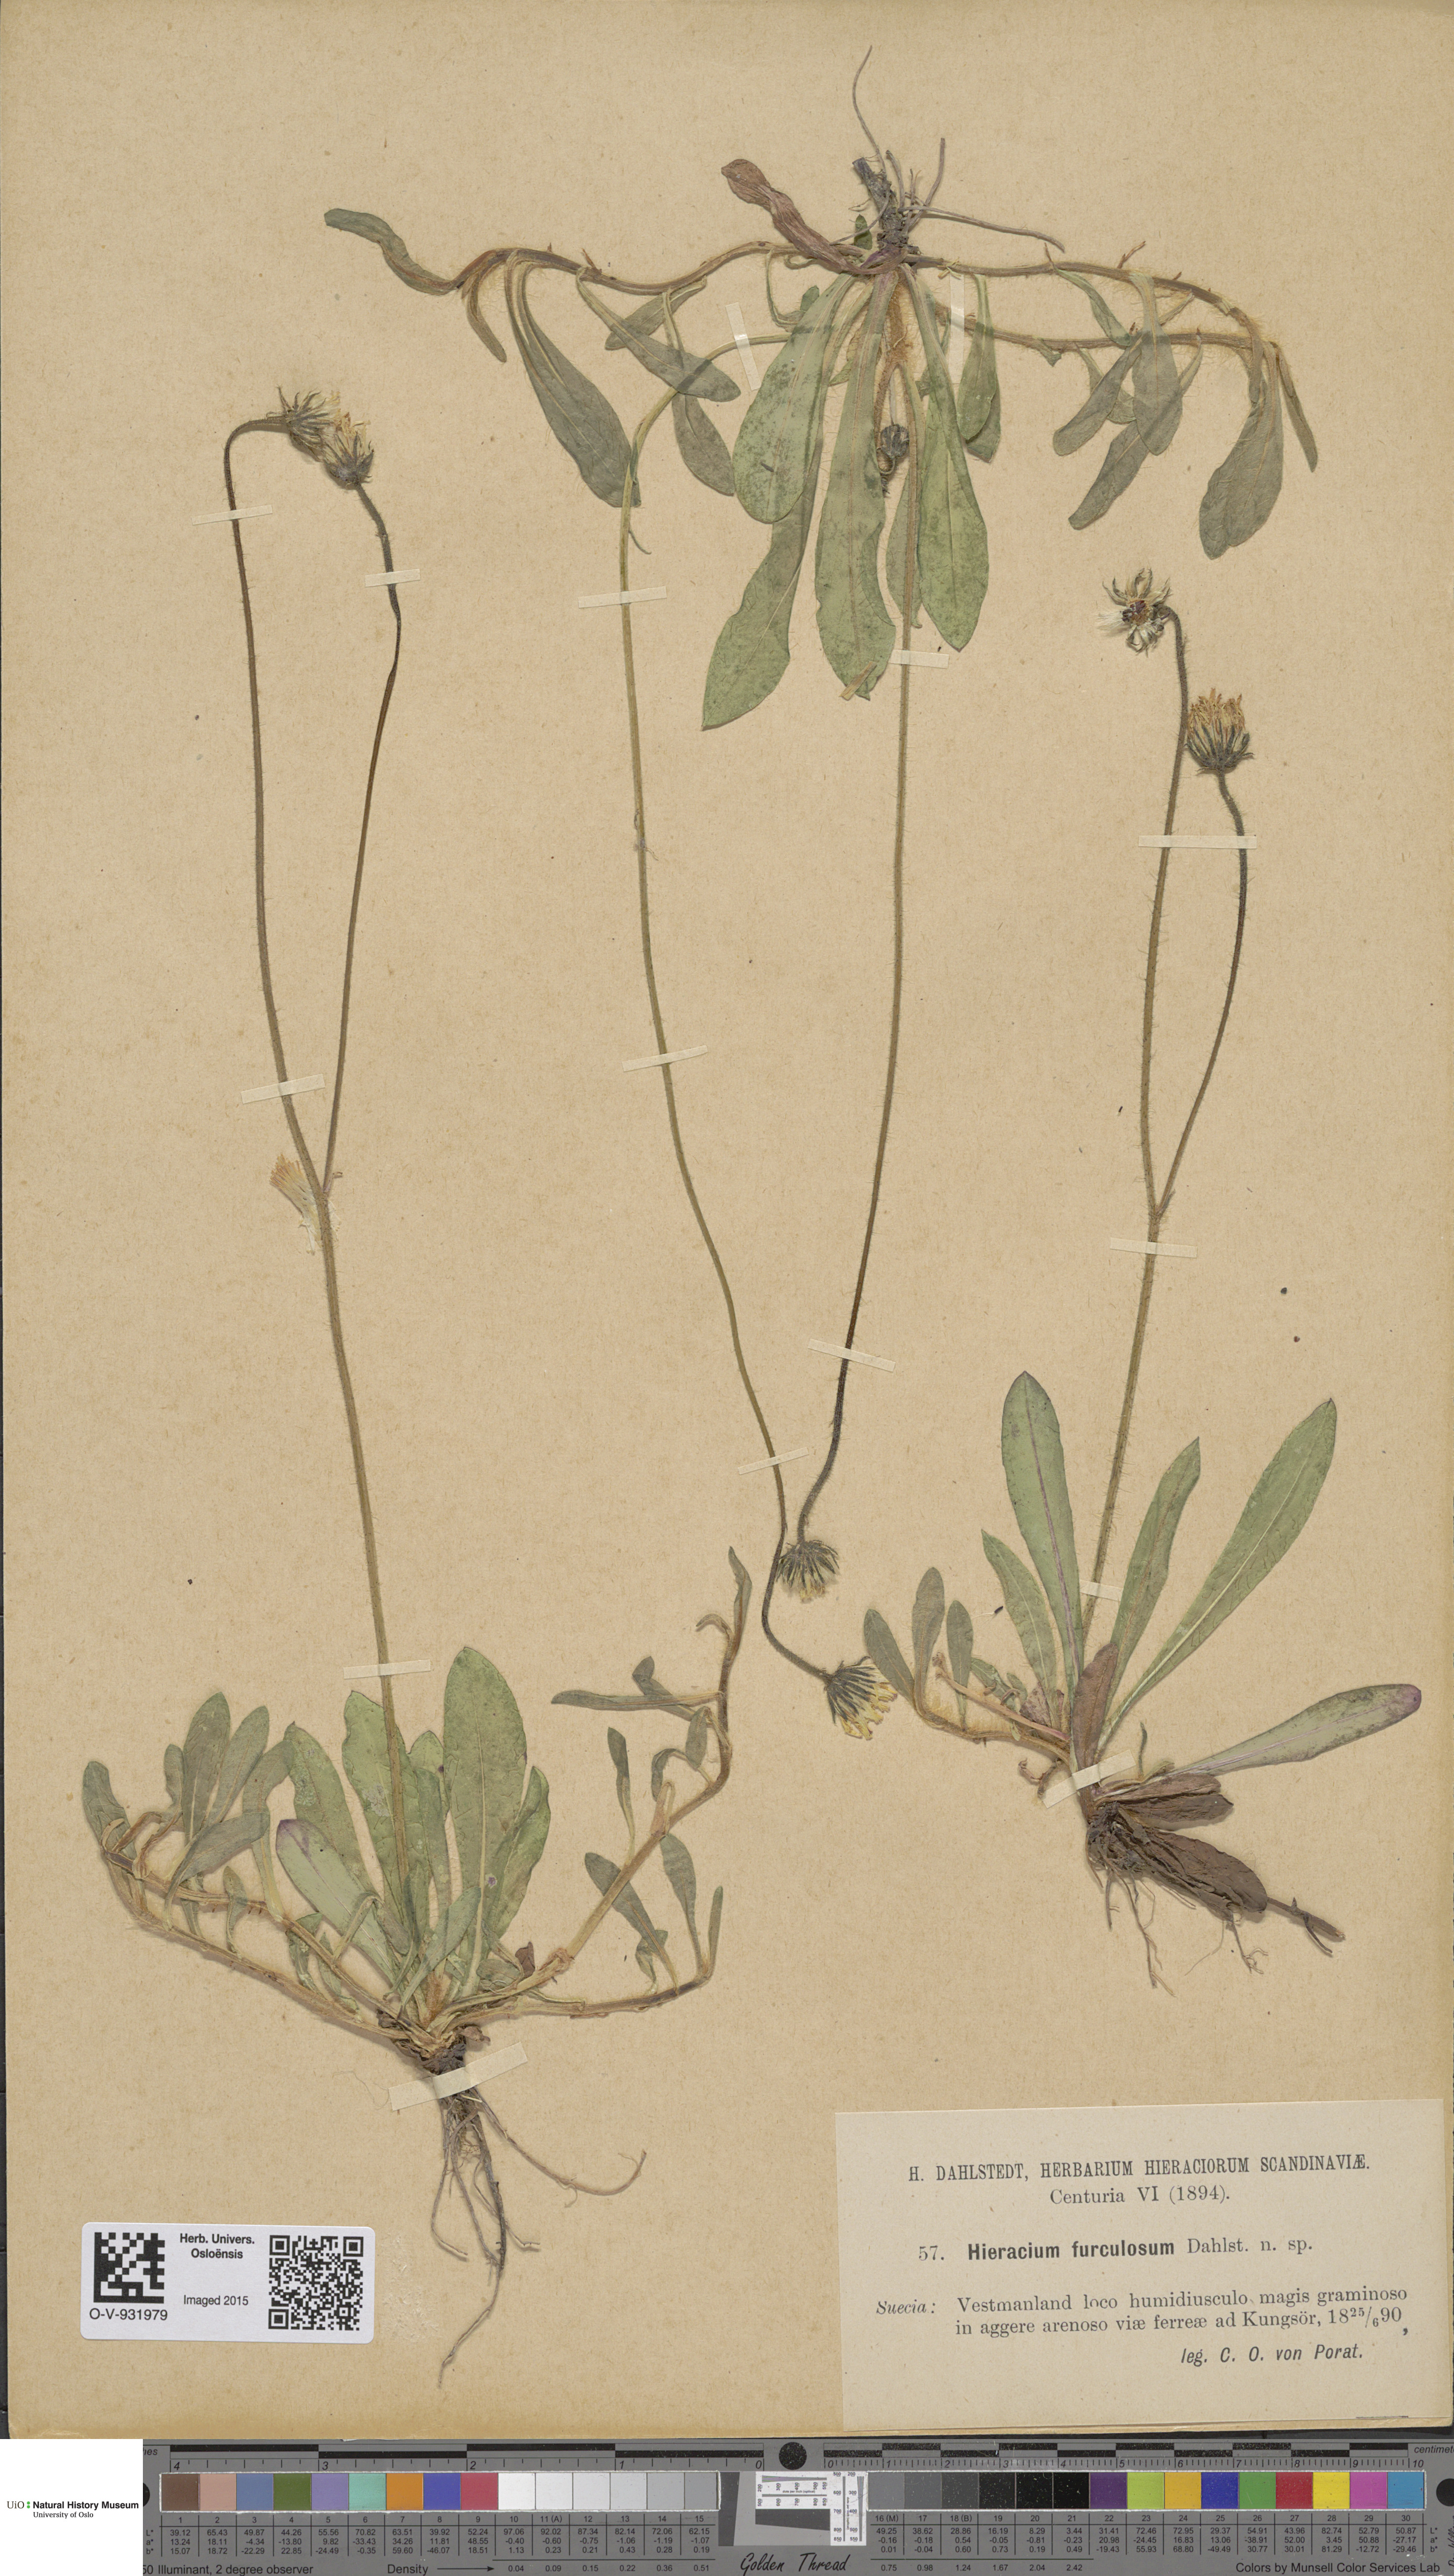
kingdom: Plantae
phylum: Tracheophyta
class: Magnoliopsida
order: Asterales
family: Asteraceae
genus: Hieracium
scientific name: Hieracium
